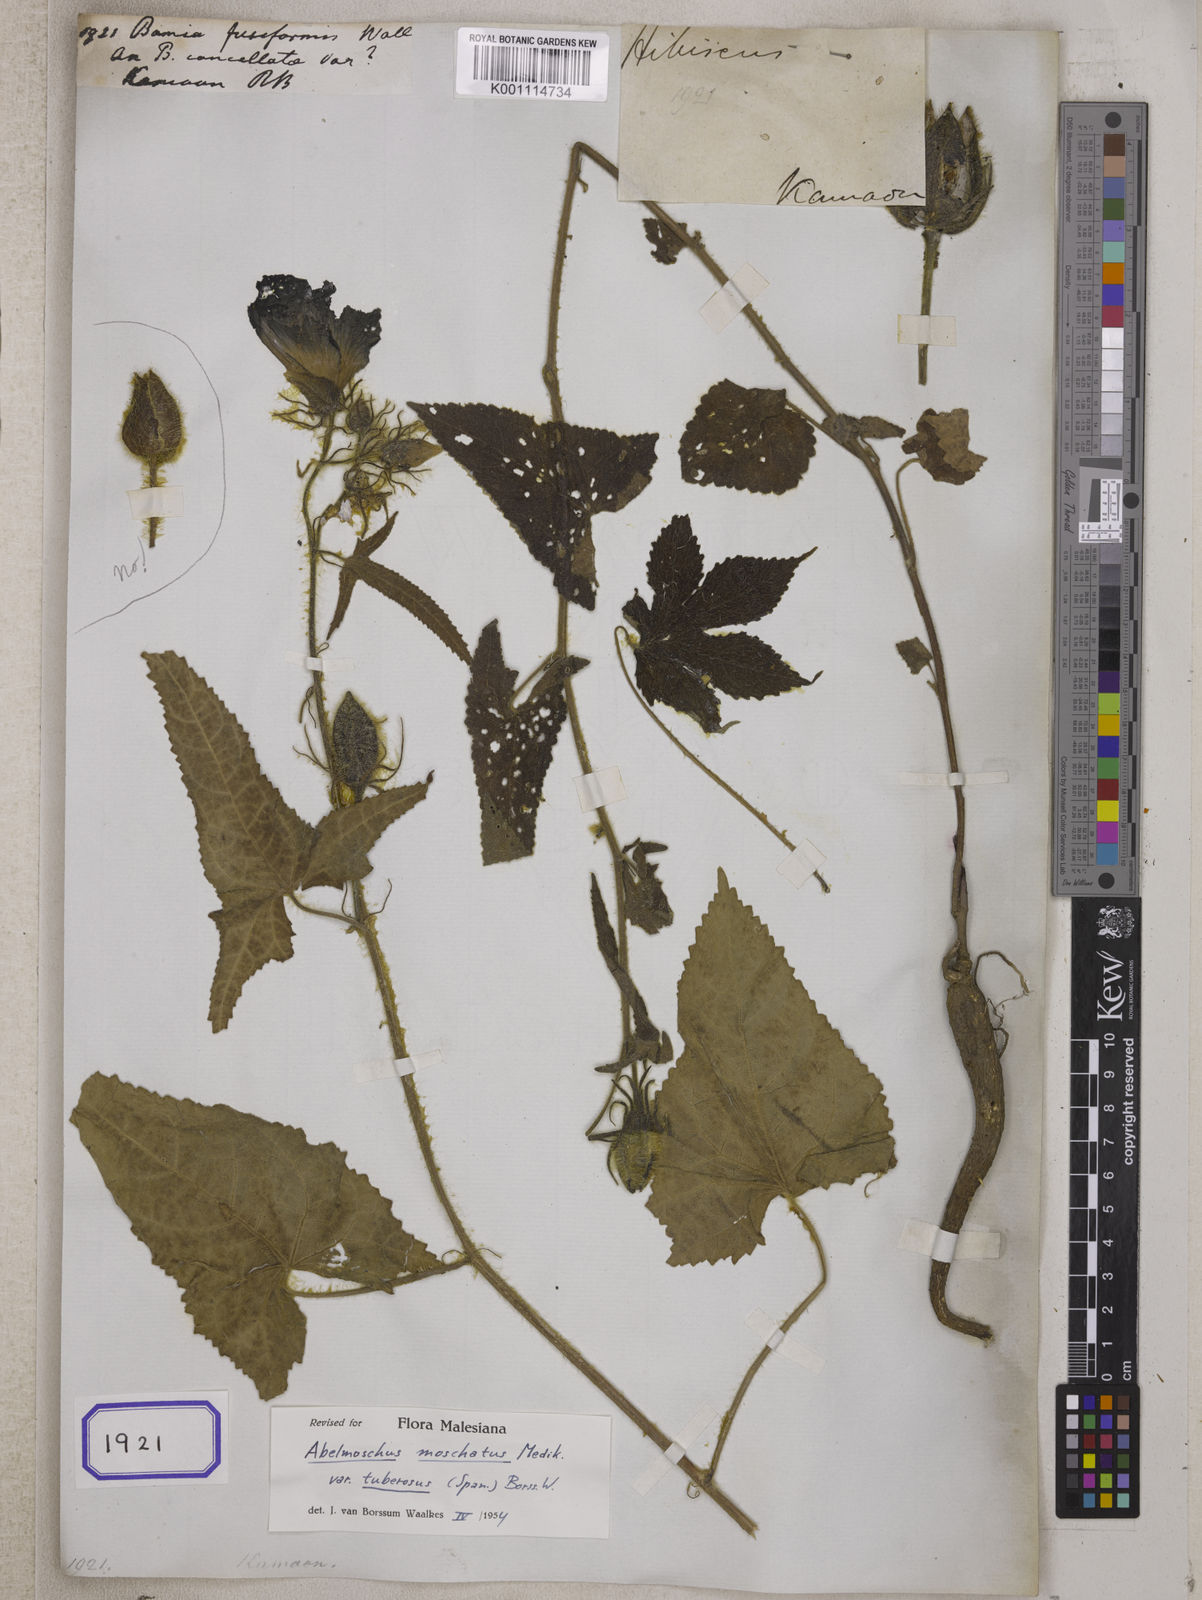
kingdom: Plantae
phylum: Tracheophyta
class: Magnoliopsida
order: Malvales
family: Malvaceae
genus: Bamia
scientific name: Bamia
